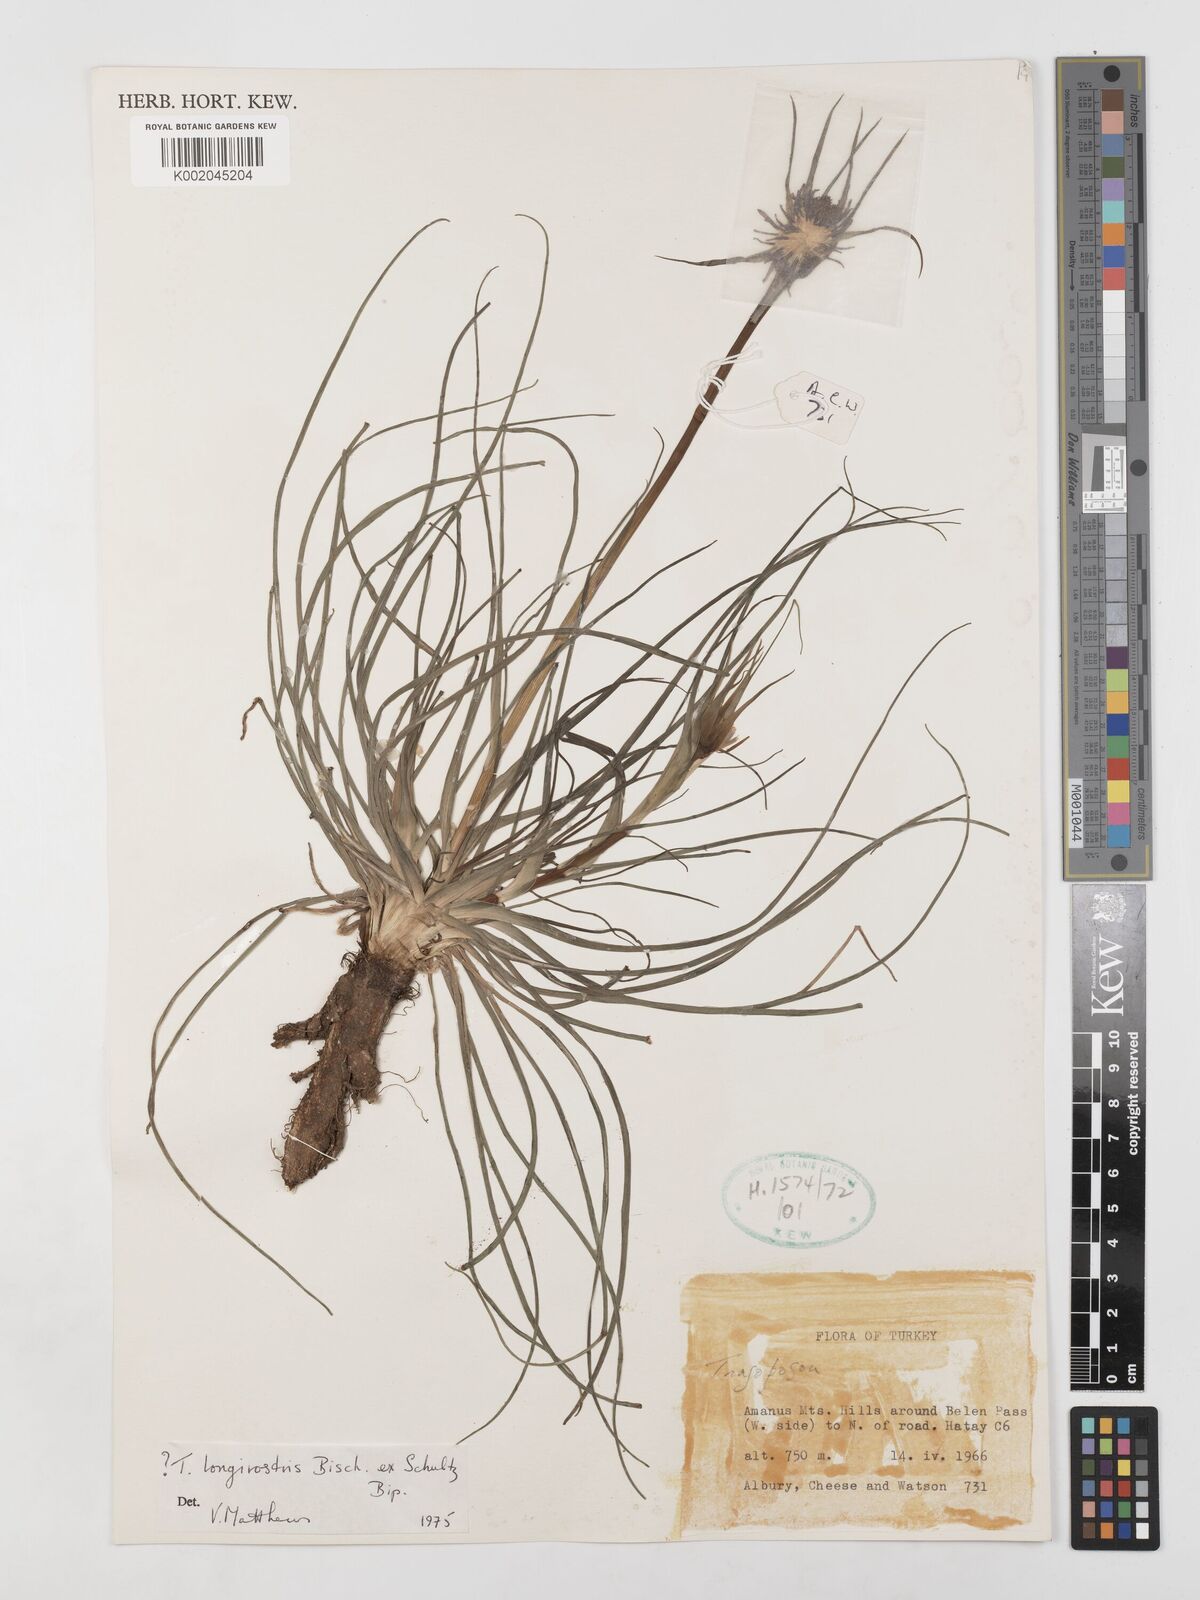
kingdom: Plantae
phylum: Tracheophyta
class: Magnoliopsida
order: Asterales
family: Asteraceae
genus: Tragopogon
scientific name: Tragopogon coelesyriacus
